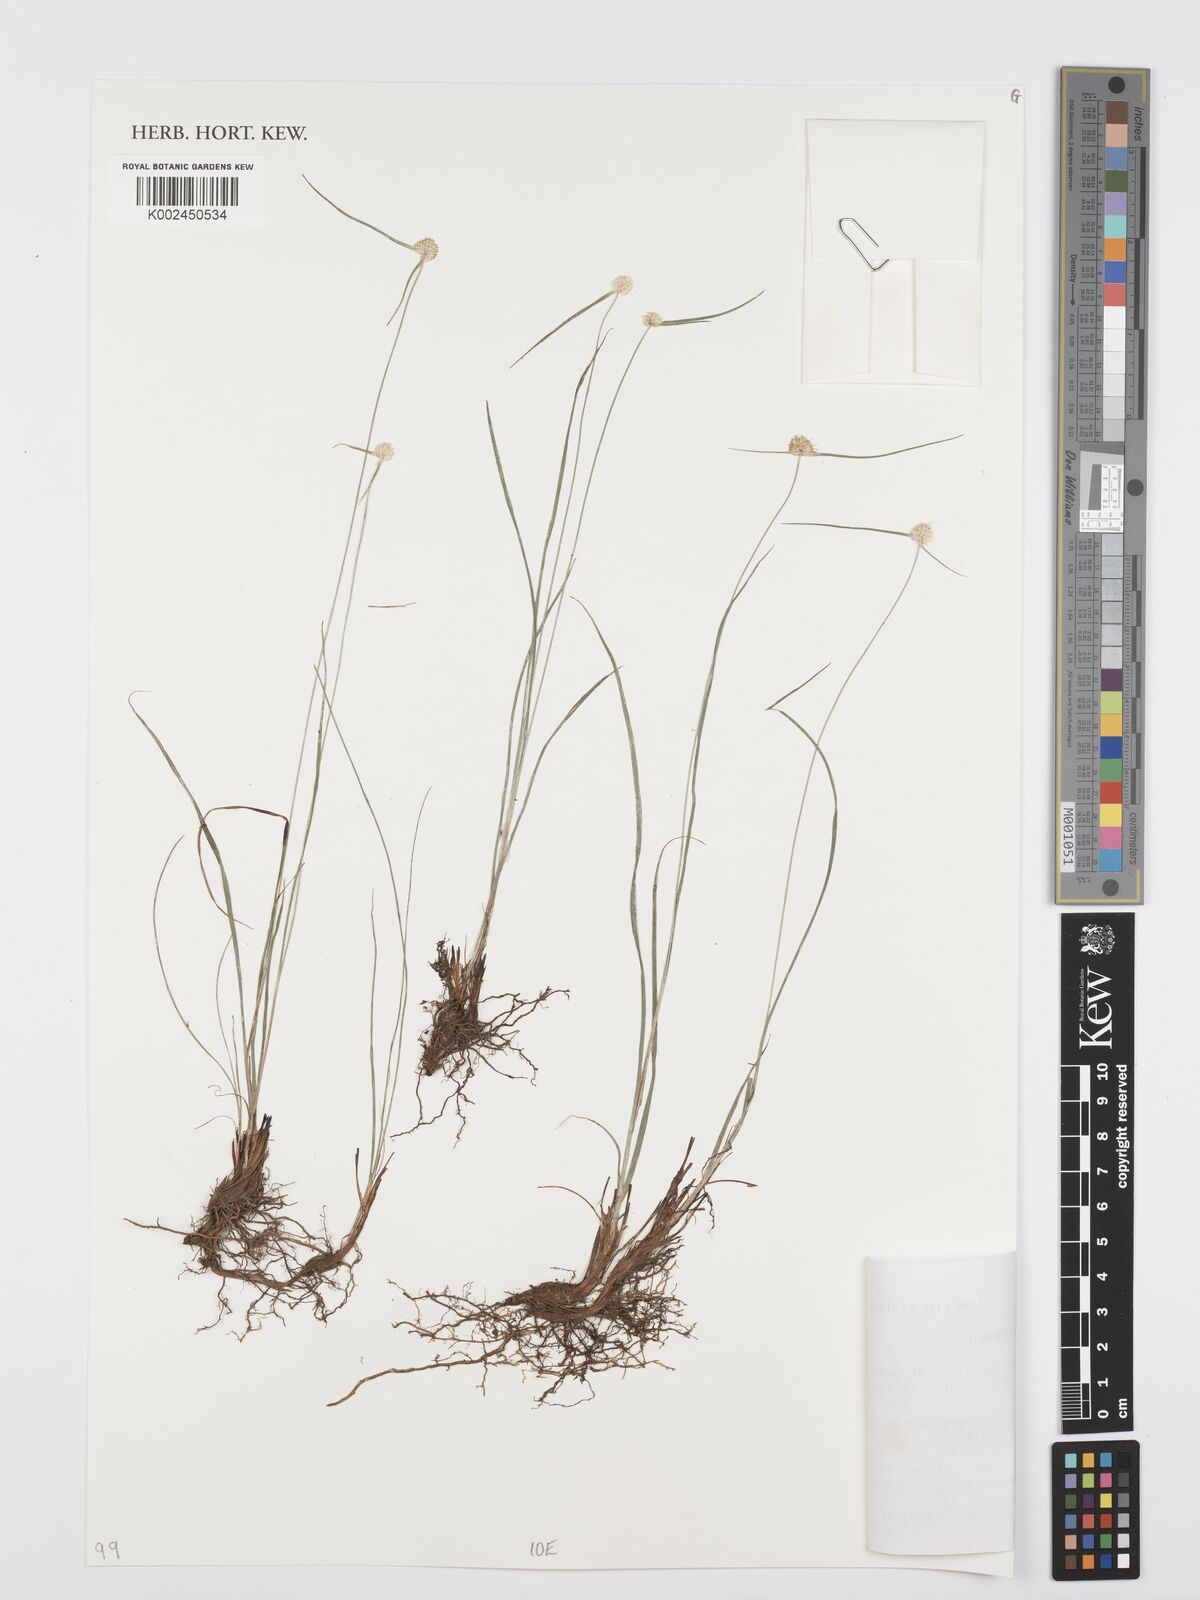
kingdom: Plantae
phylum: Tracheophyta
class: Liliopsida
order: Poales
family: Cyperaceae
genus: Cyperus
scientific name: Cyperus crassipes
